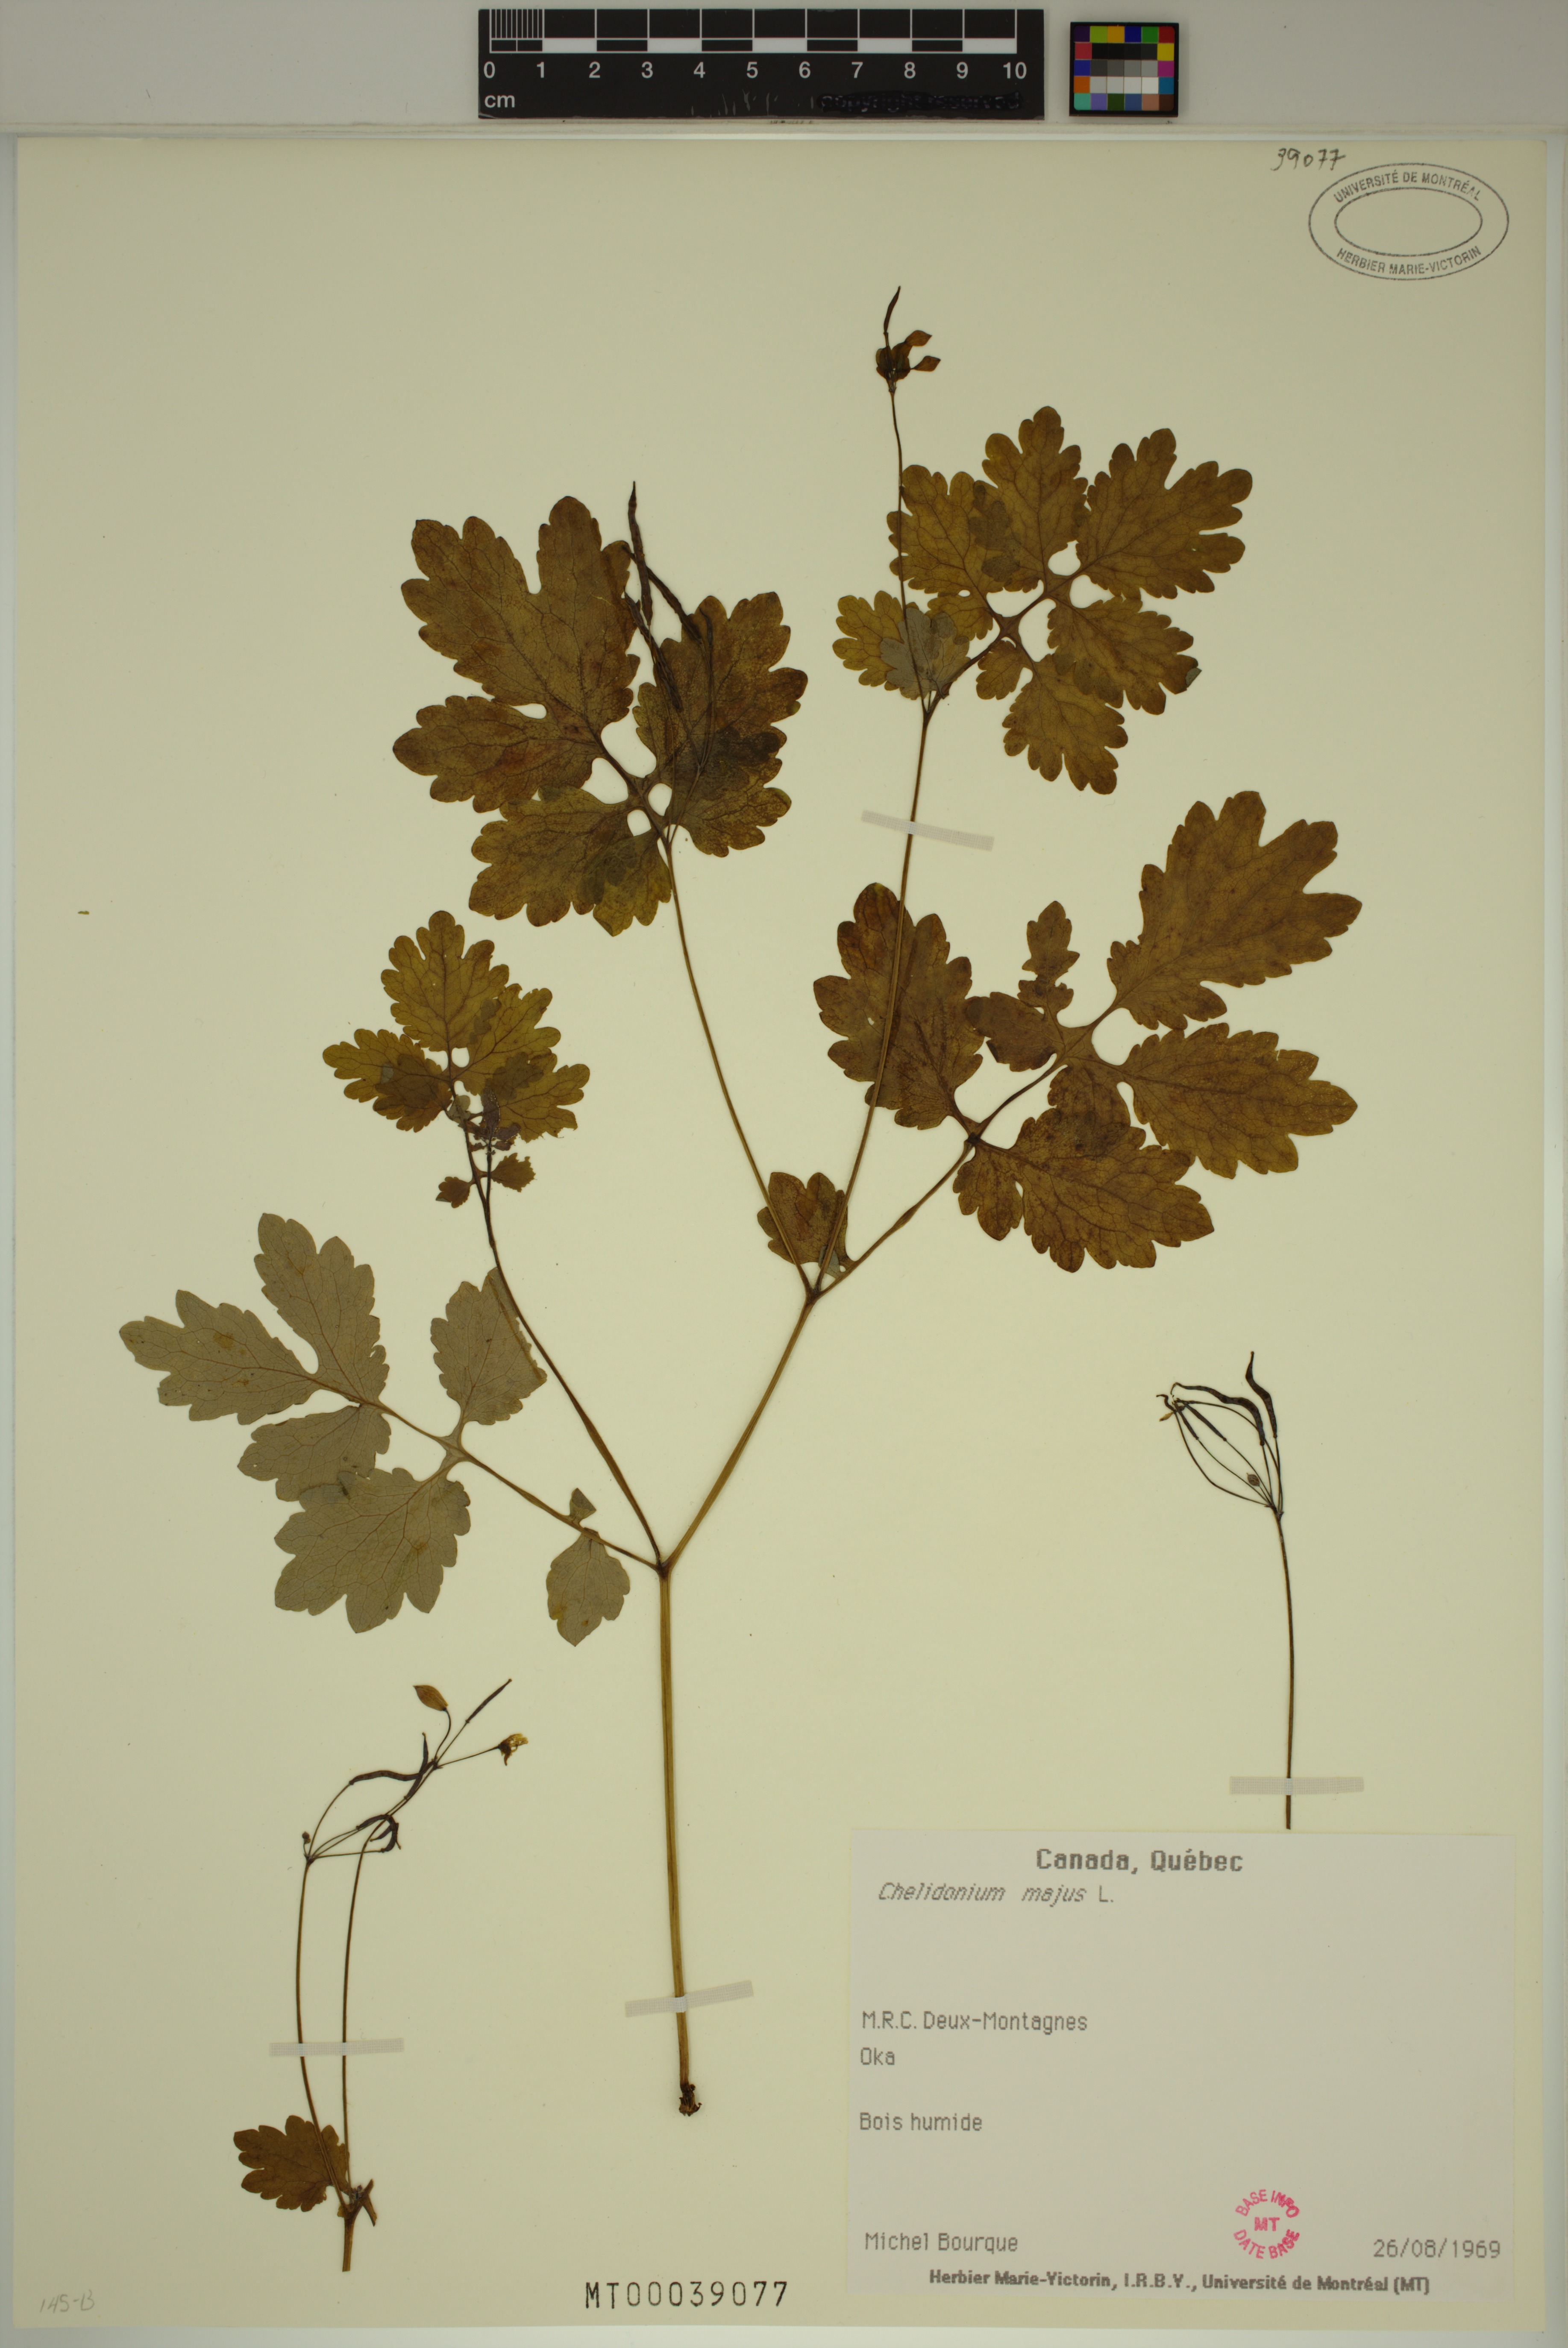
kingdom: Plantae
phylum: Tracheophyta
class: Magnoliopsida
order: Ranunculales
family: Papaveraceae
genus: Chelidonium
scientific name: Chelidonium majus
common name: Greater celandine
